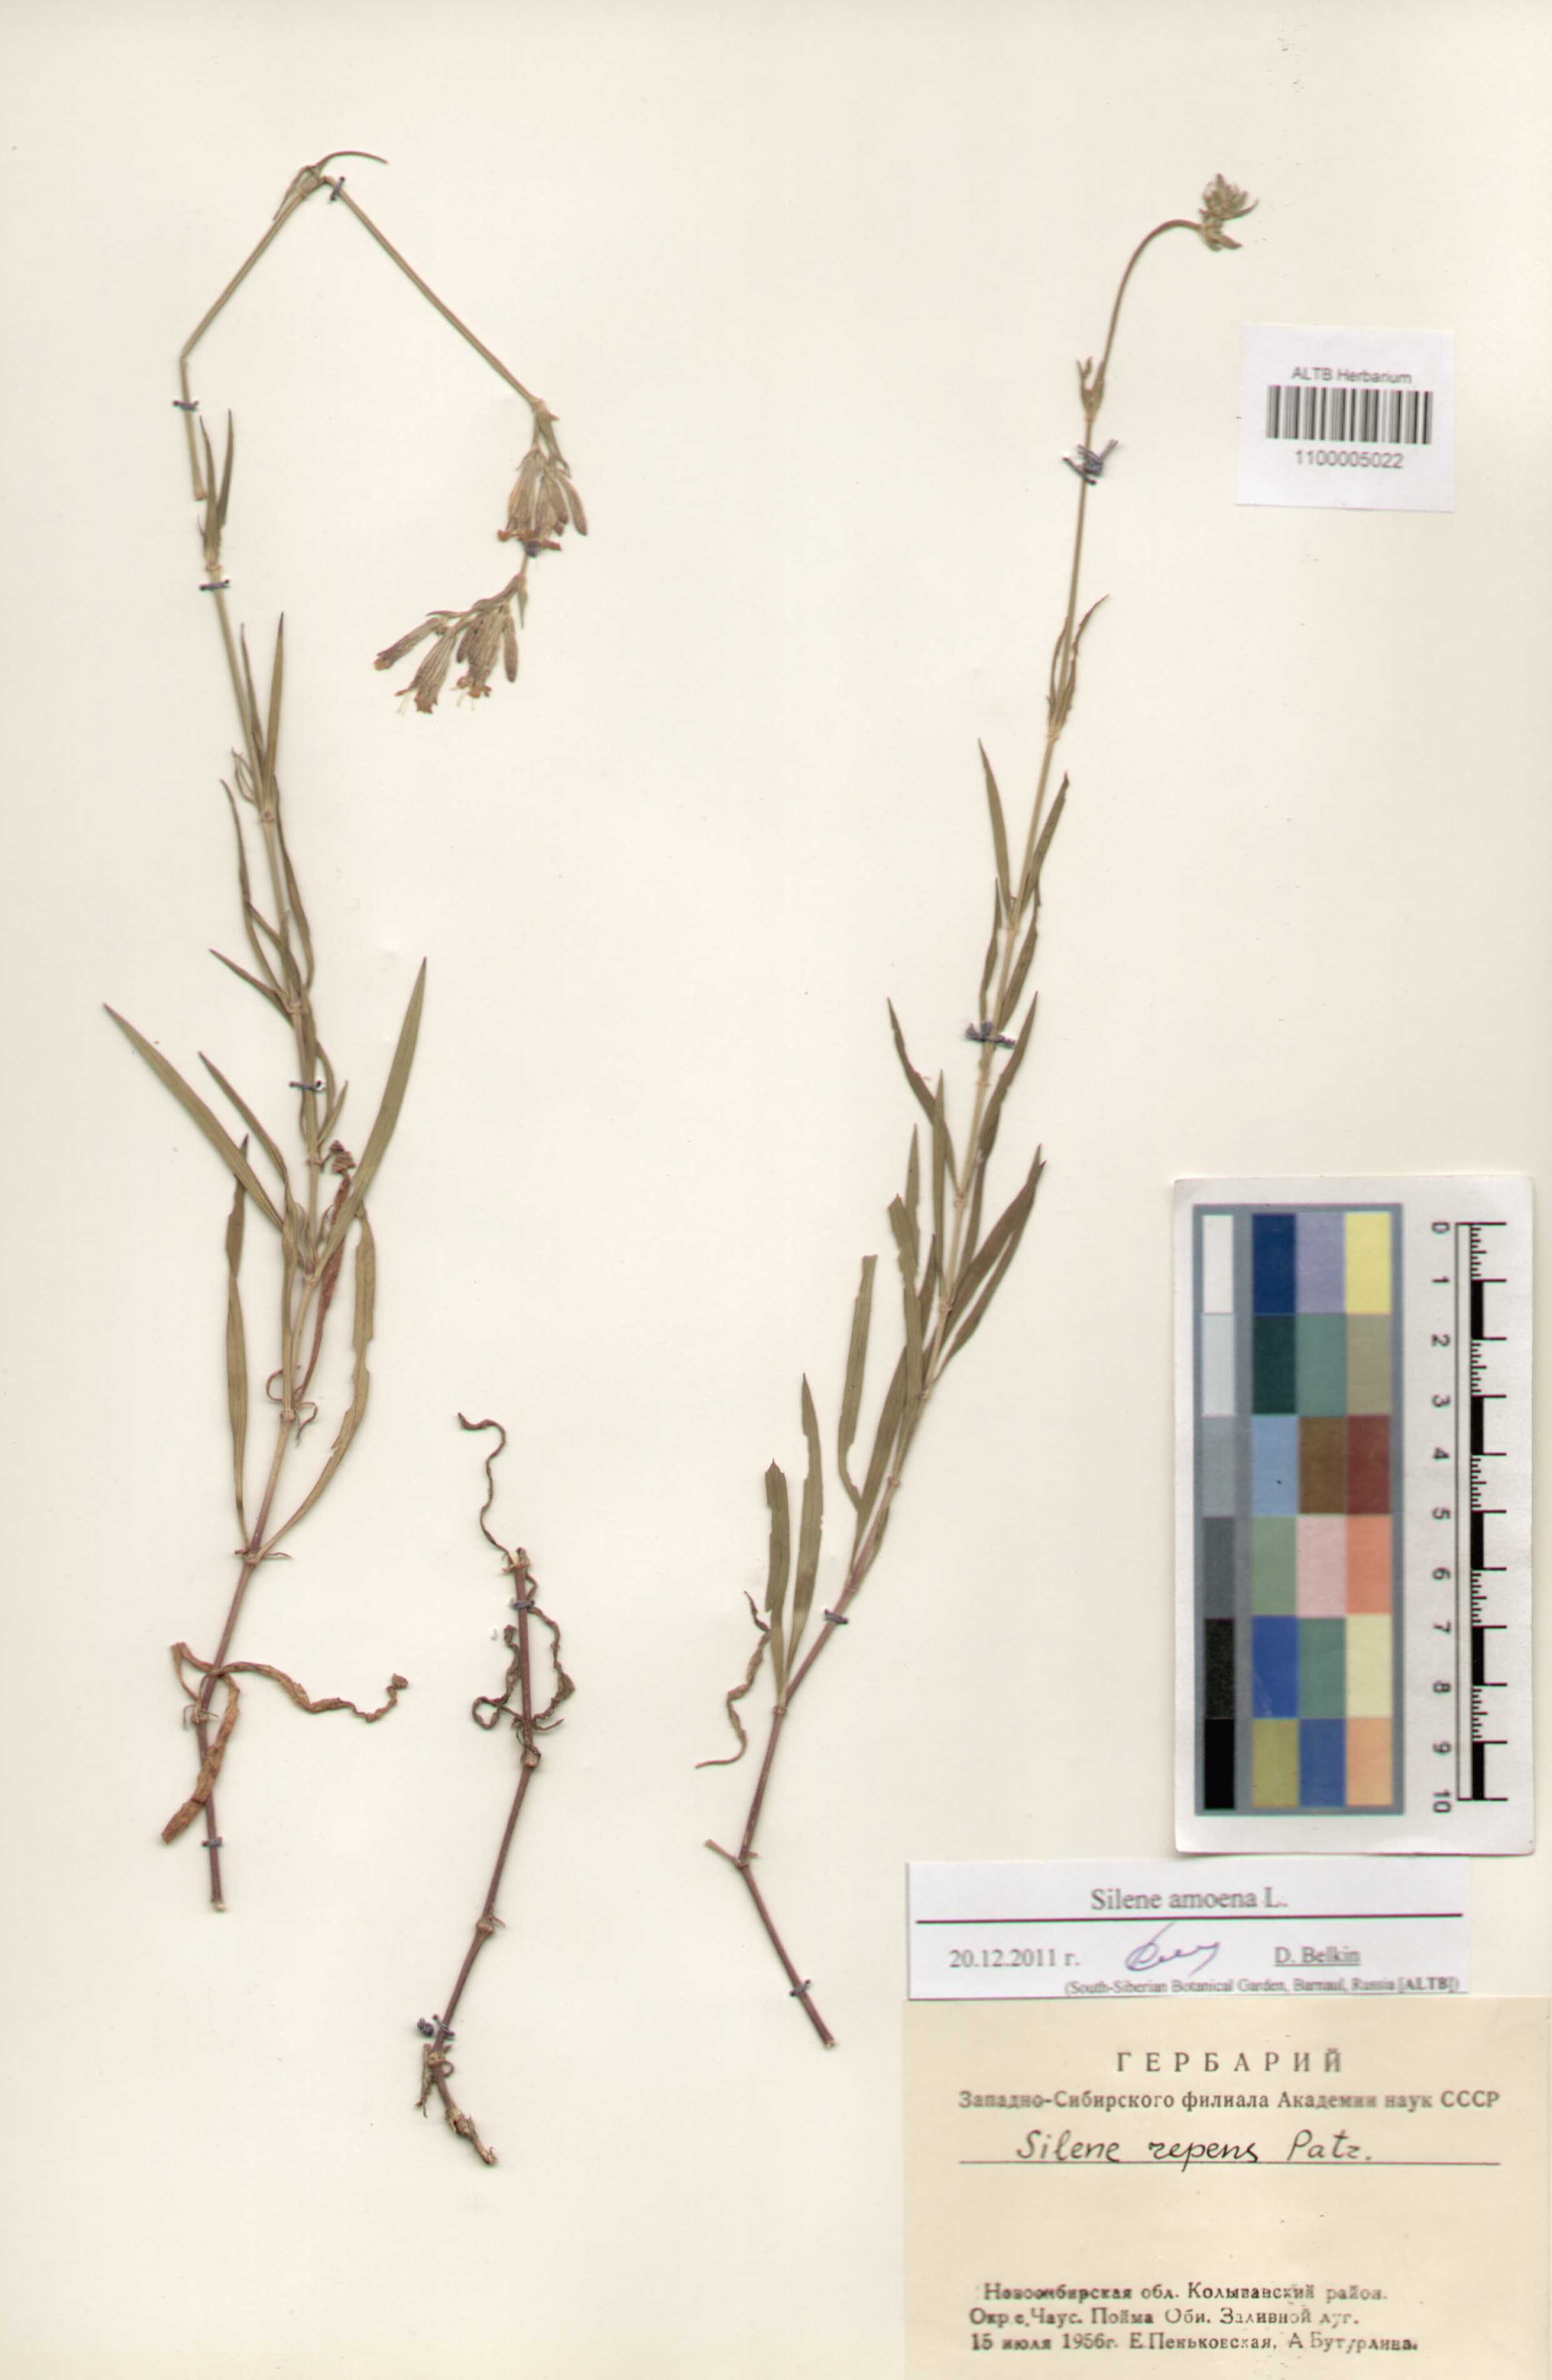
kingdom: Plantae
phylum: Tracheophyta
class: Magnoliopsida
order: Caryophyllales
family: Caryophyllaceae
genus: Silene
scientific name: Silene amoena
